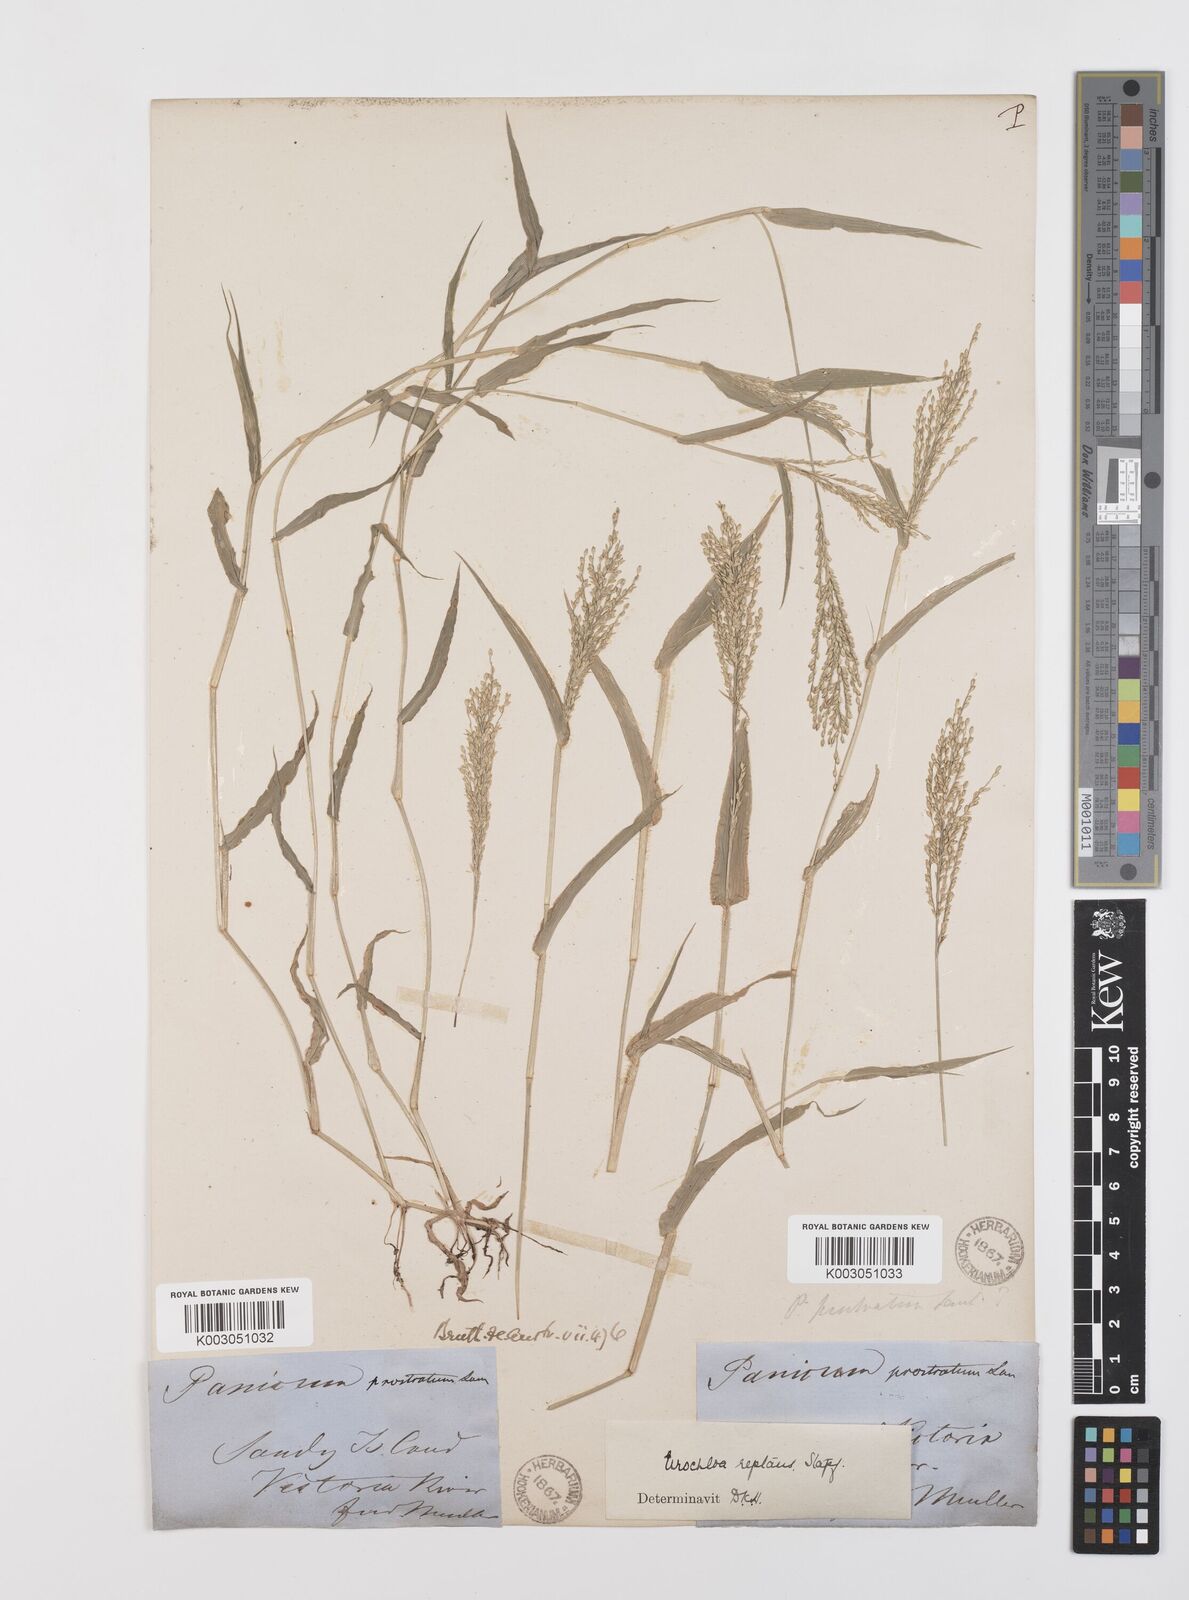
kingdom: Plantae
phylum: Tracheophyta
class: Liliopsida
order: Poales
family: Poaceae
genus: Urochloa
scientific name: Urochloa reptans
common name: Sprawling signalgrass
